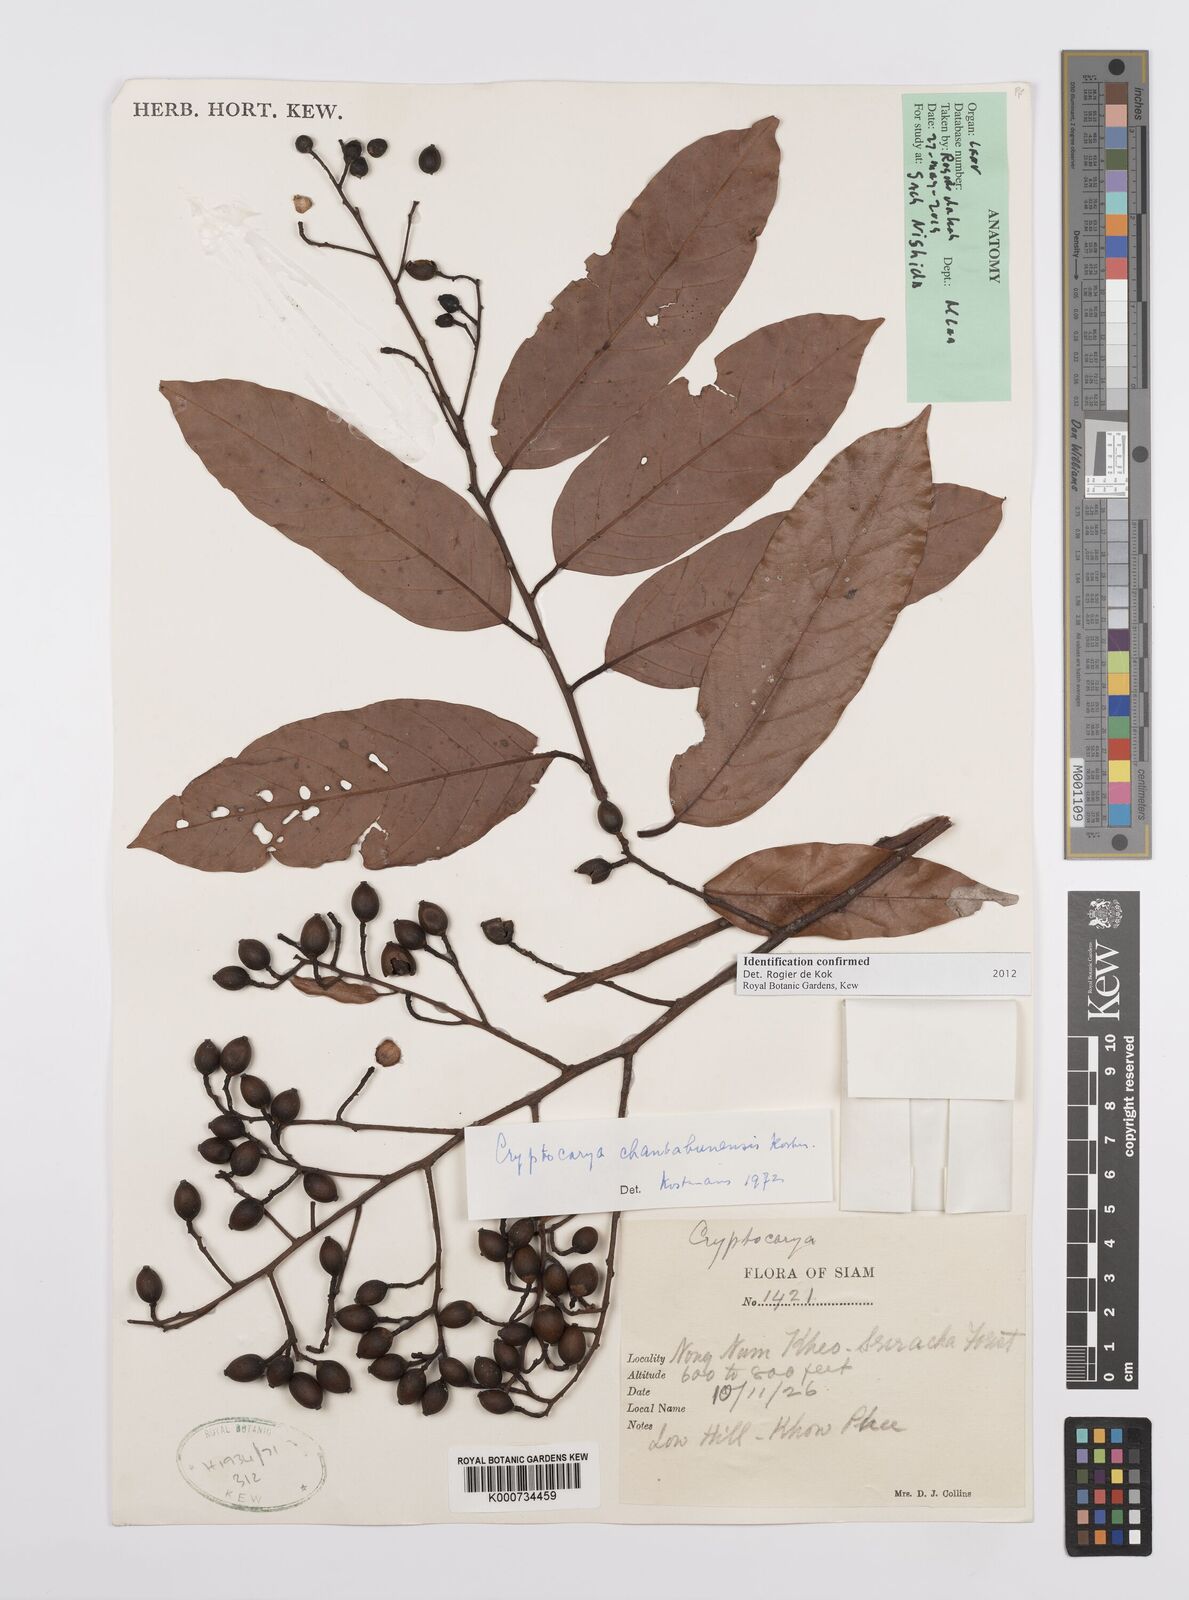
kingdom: Plantae
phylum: Tracheophyta
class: Magnoliopsida
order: Laurales
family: Lauraceae
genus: Cryptocarya
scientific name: Cryptocarya chanthaburiensis
